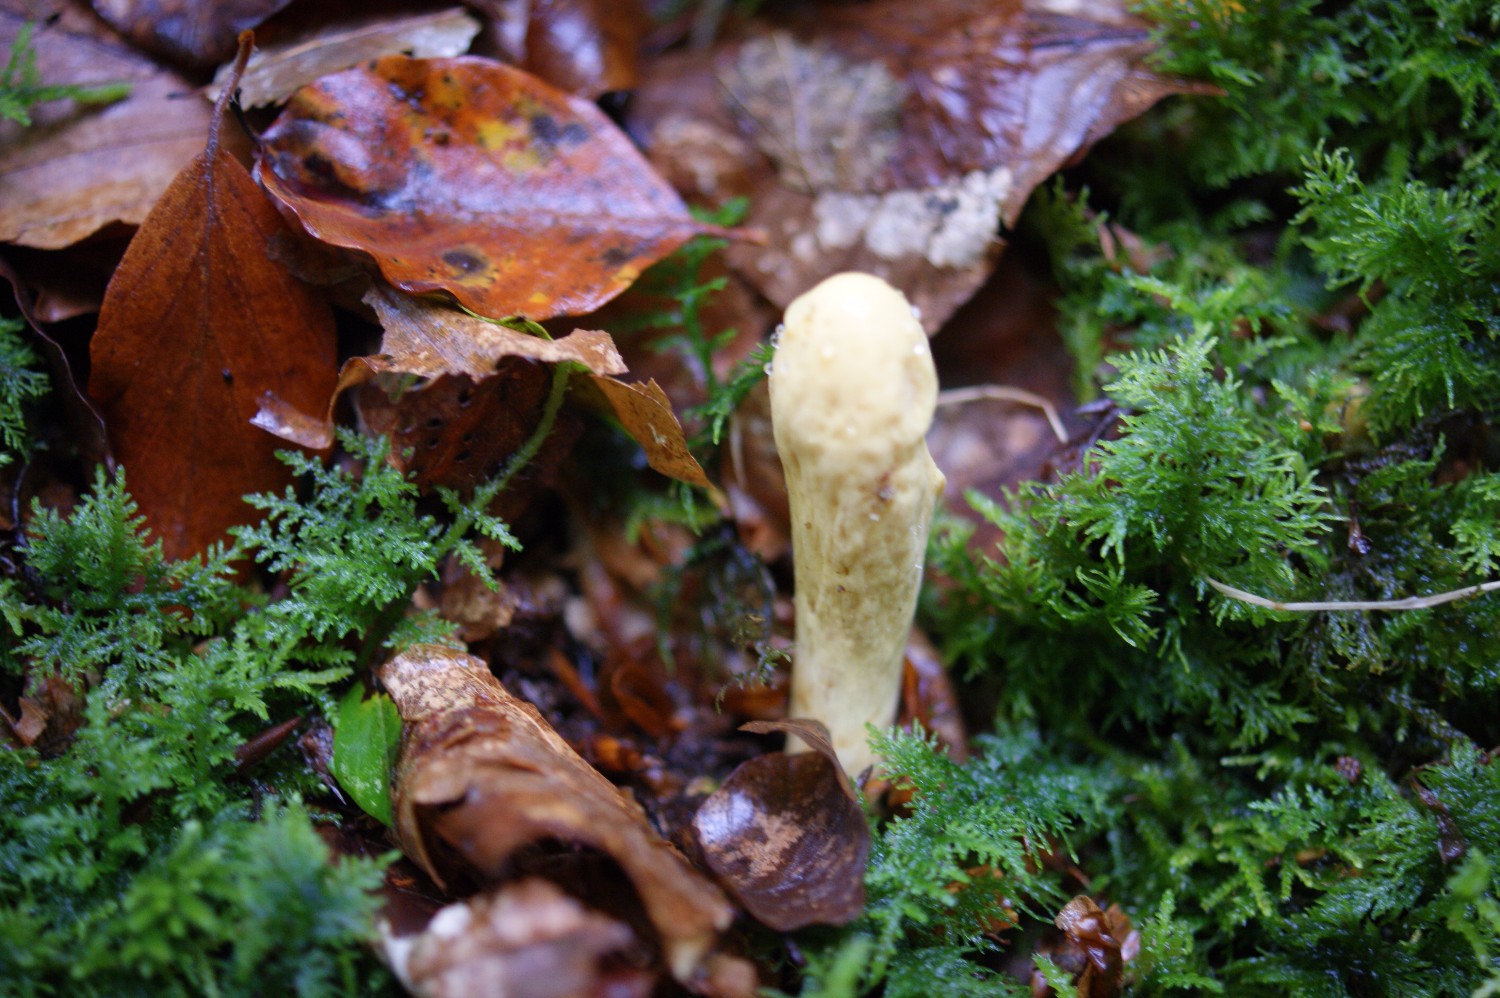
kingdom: Fungi
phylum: Basidiomycota
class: Agaricomycetes
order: Gomphales
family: Clavariadelphaceae
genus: Clavariadelphus
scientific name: Clavariadelphus pistillaris
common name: herkules-kæmpekølle
